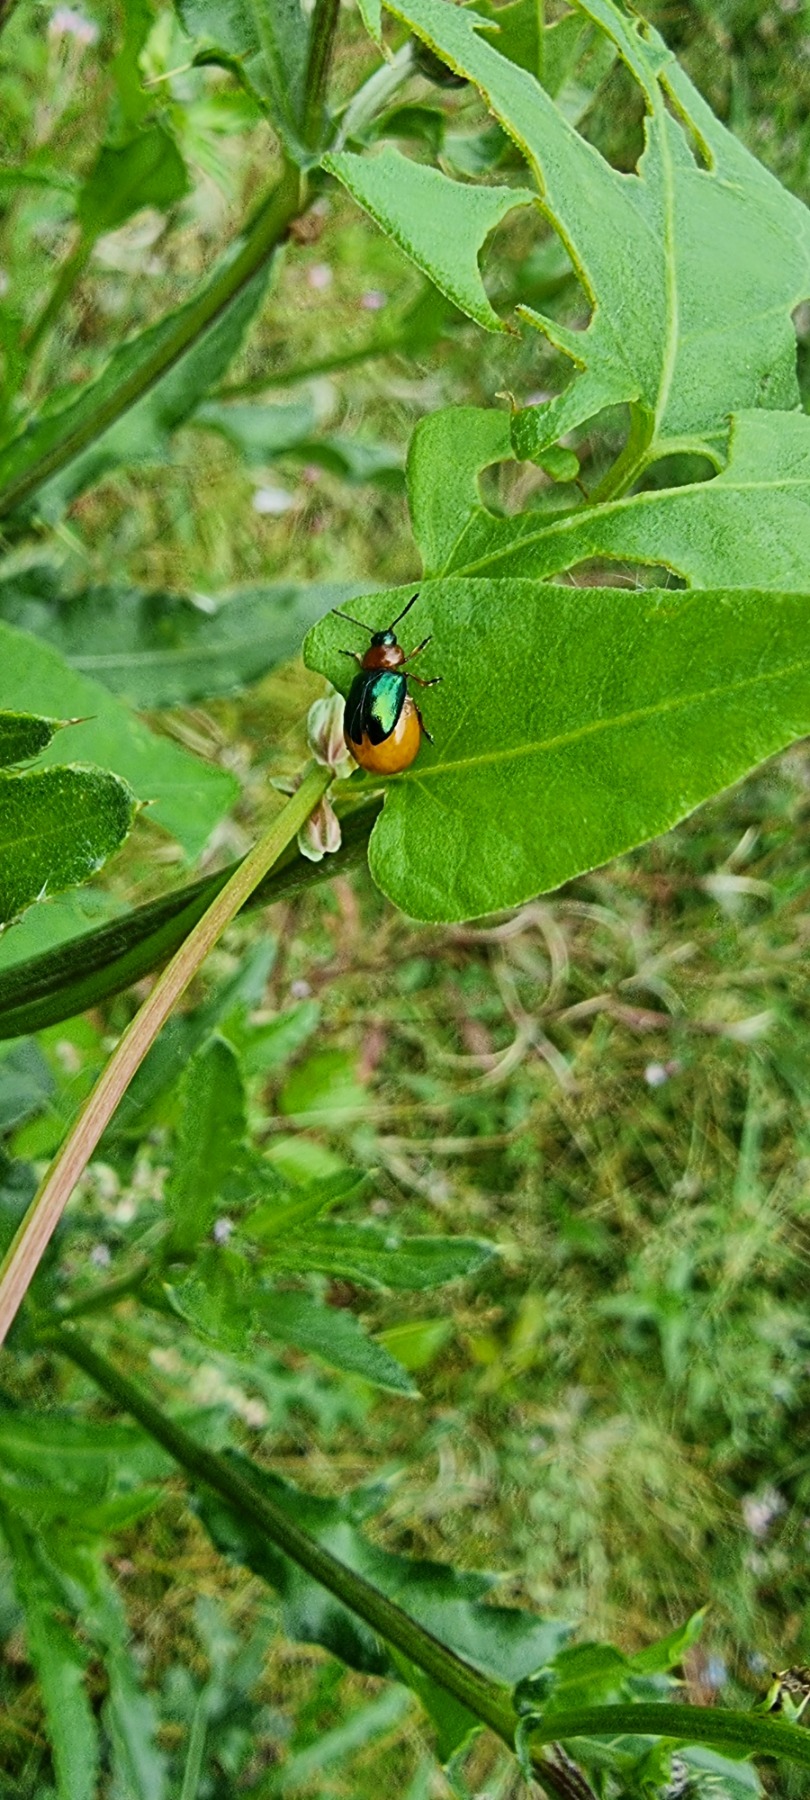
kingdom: Animalia
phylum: Arthropoda
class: Insecta
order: Coleoptera
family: Chrysomelidae
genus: Gastrophysa
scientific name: Gastrophysa polygoni
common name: Pileurtbladbille
